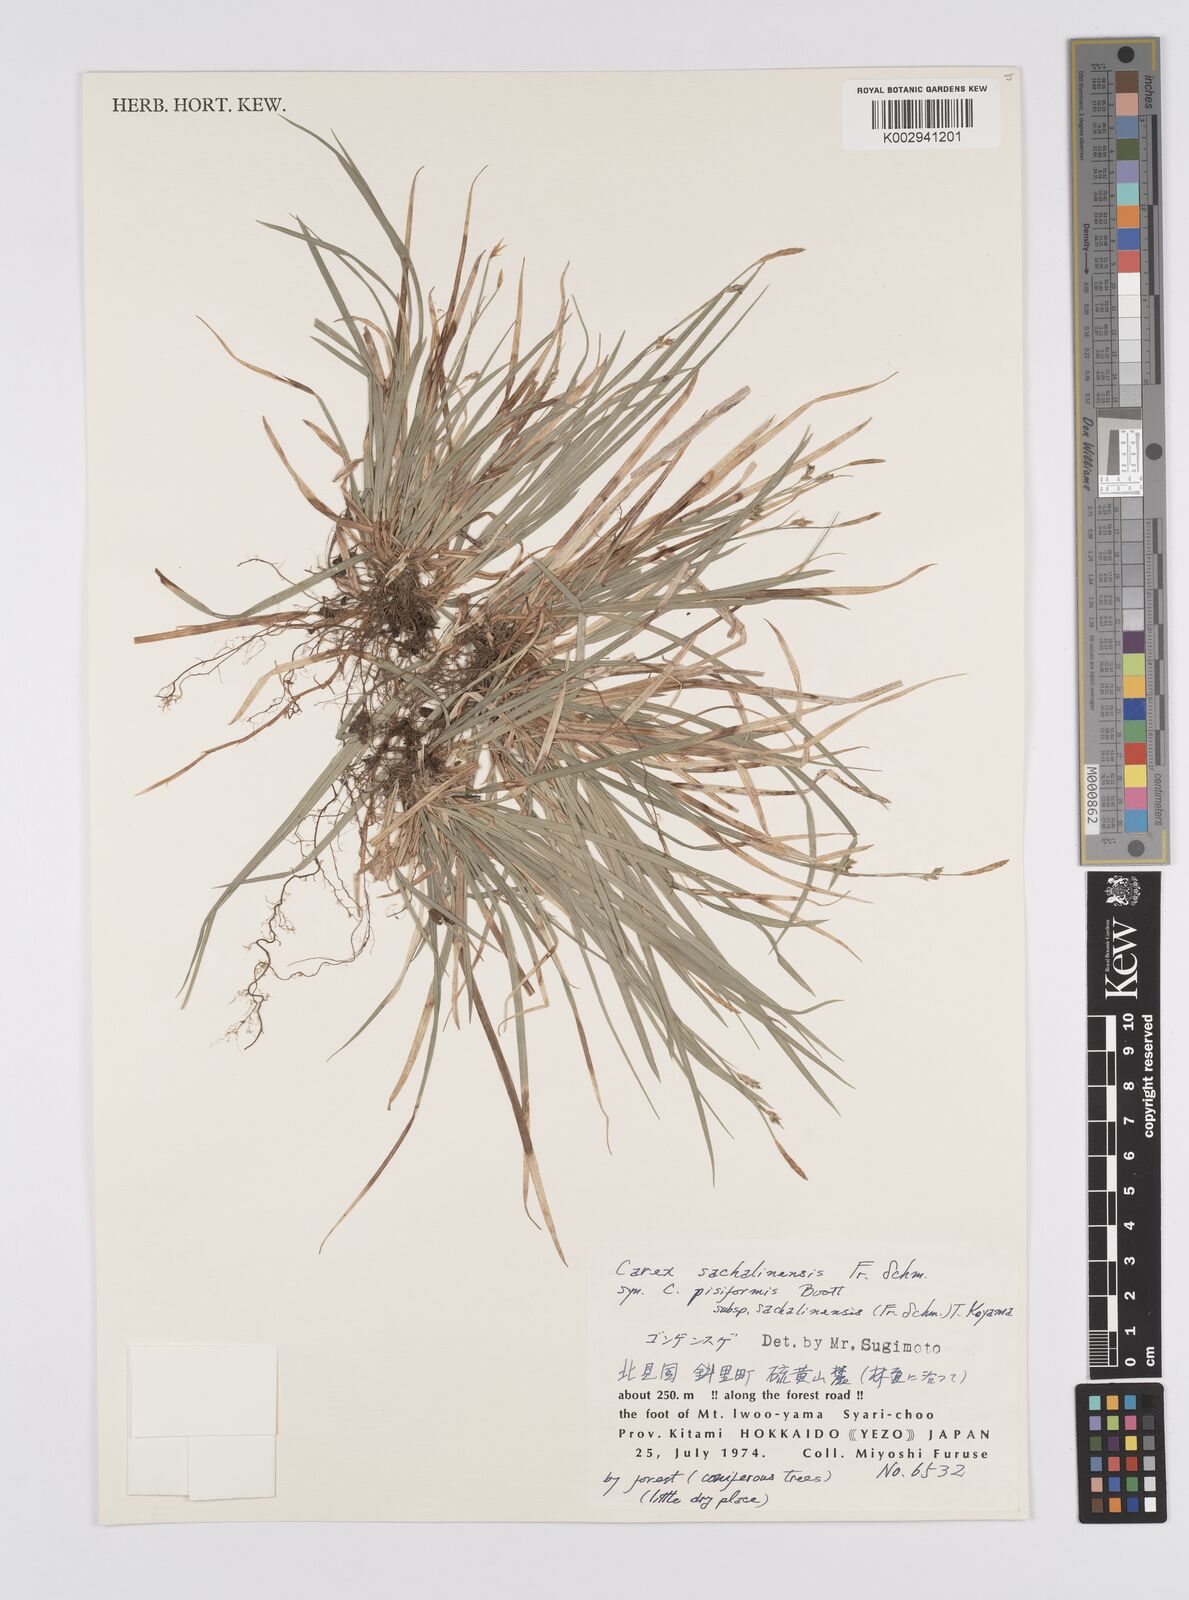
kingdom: Plantae
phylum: Tracheophyta
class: Liliopsida
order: Poales
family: Cyperaceae
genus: Carex
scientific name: Carex pisiformis
